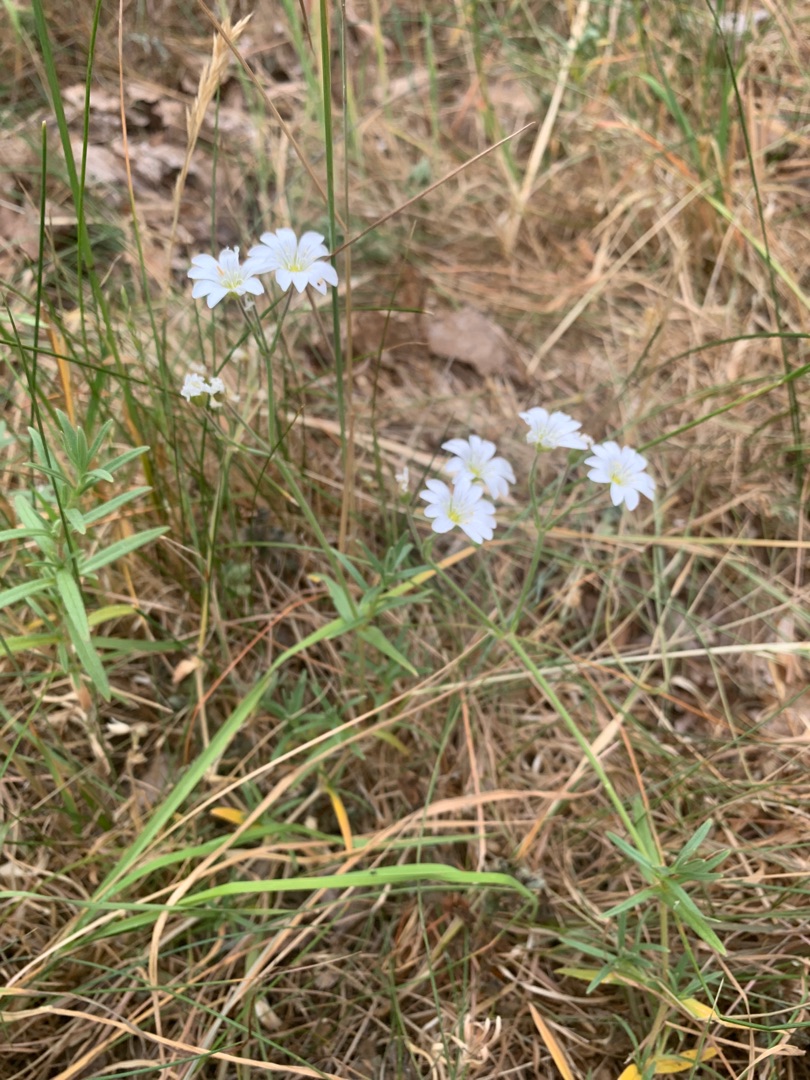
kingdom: Plantae
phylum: Tracheophyta
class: Magnoliopsida
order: Caryophyllales
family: Caryophyllaceae
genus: Cerastium
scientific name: Cerastium arvense
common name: Storblomstret hønsetarm
